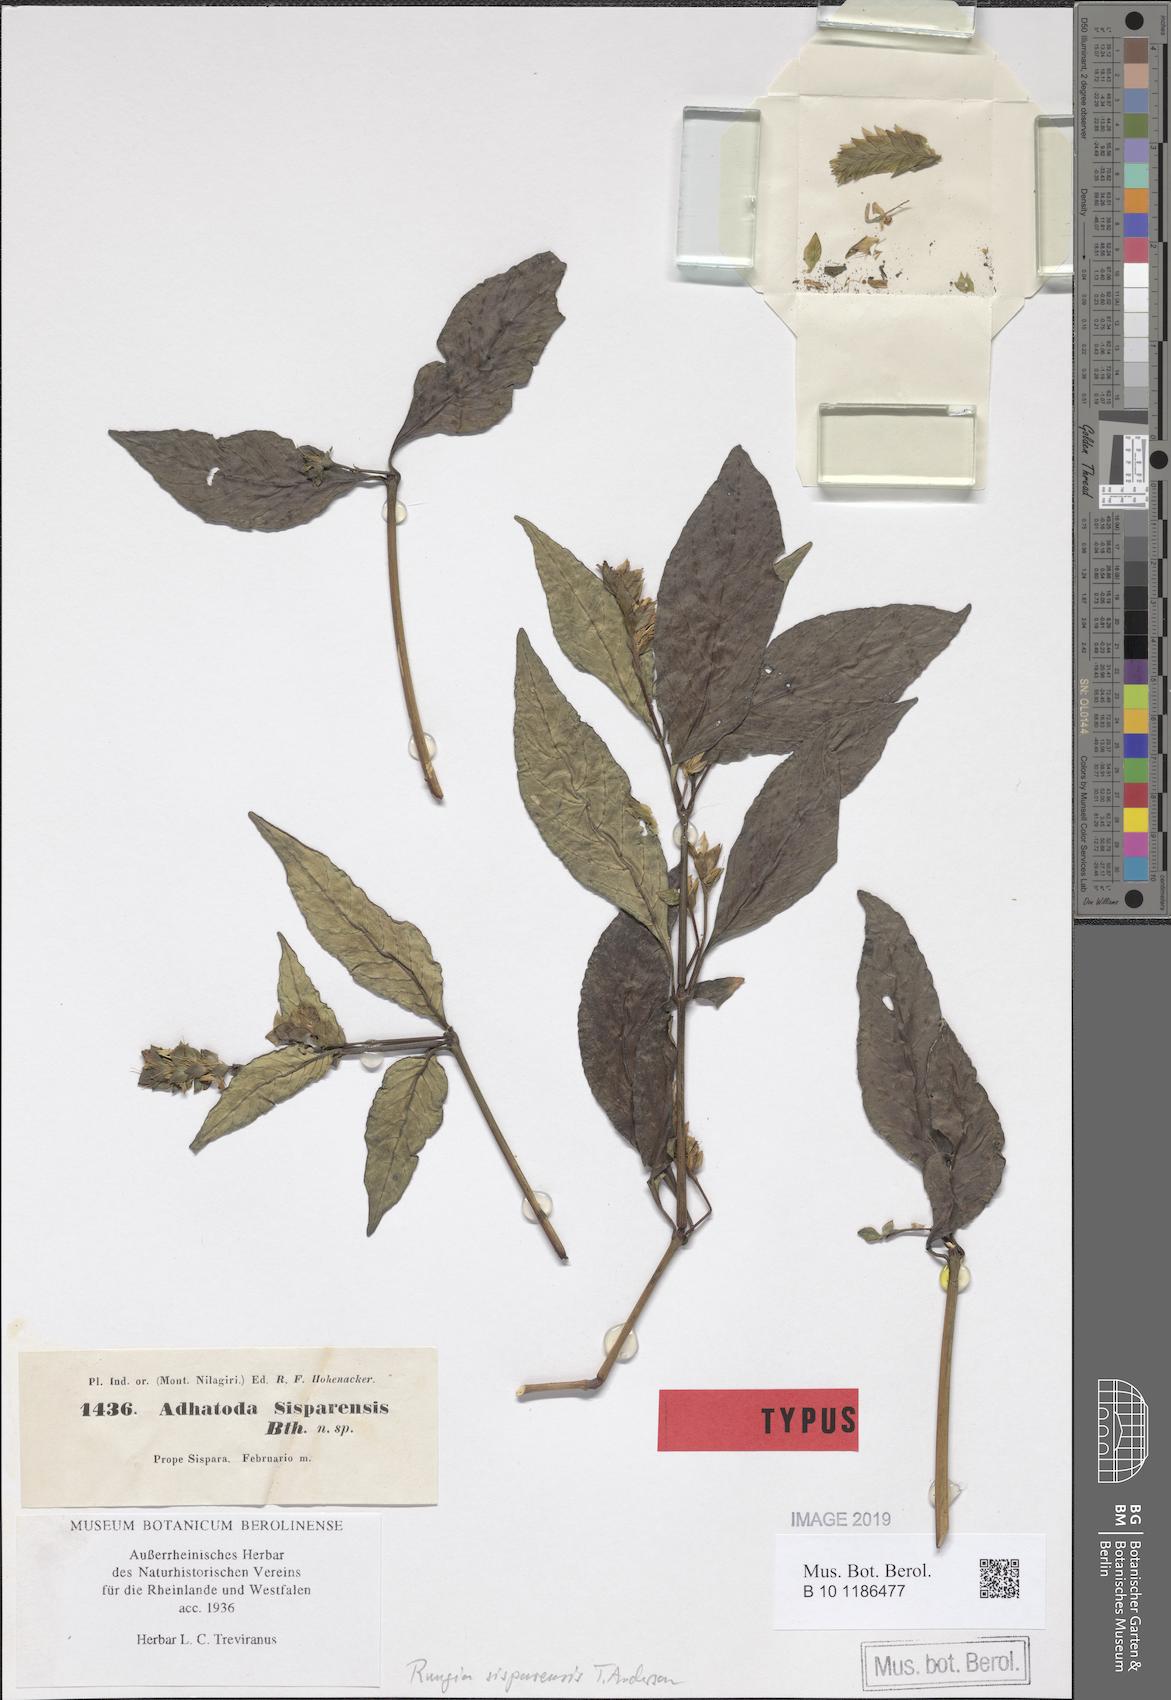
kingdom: Plantae
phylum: Tracheophyta
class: Magnoliopsida
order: Lamiales
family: Acanthaceae
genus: Rungia
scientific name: Rungia sisparensis
